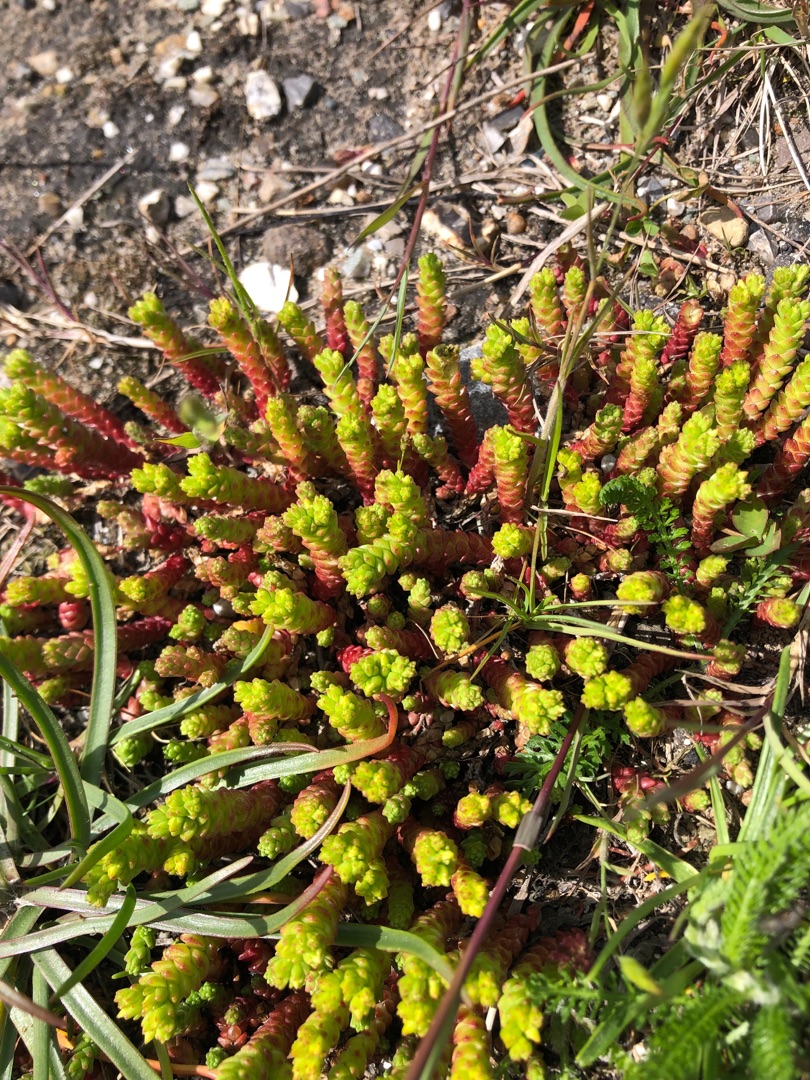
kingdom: Plantae
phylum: Tracheophyta
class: Magnoliopsida
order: Saxifragales
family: Crassulaceae
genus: Sedum
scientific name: Sedum acre
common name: Bidende stenurt
